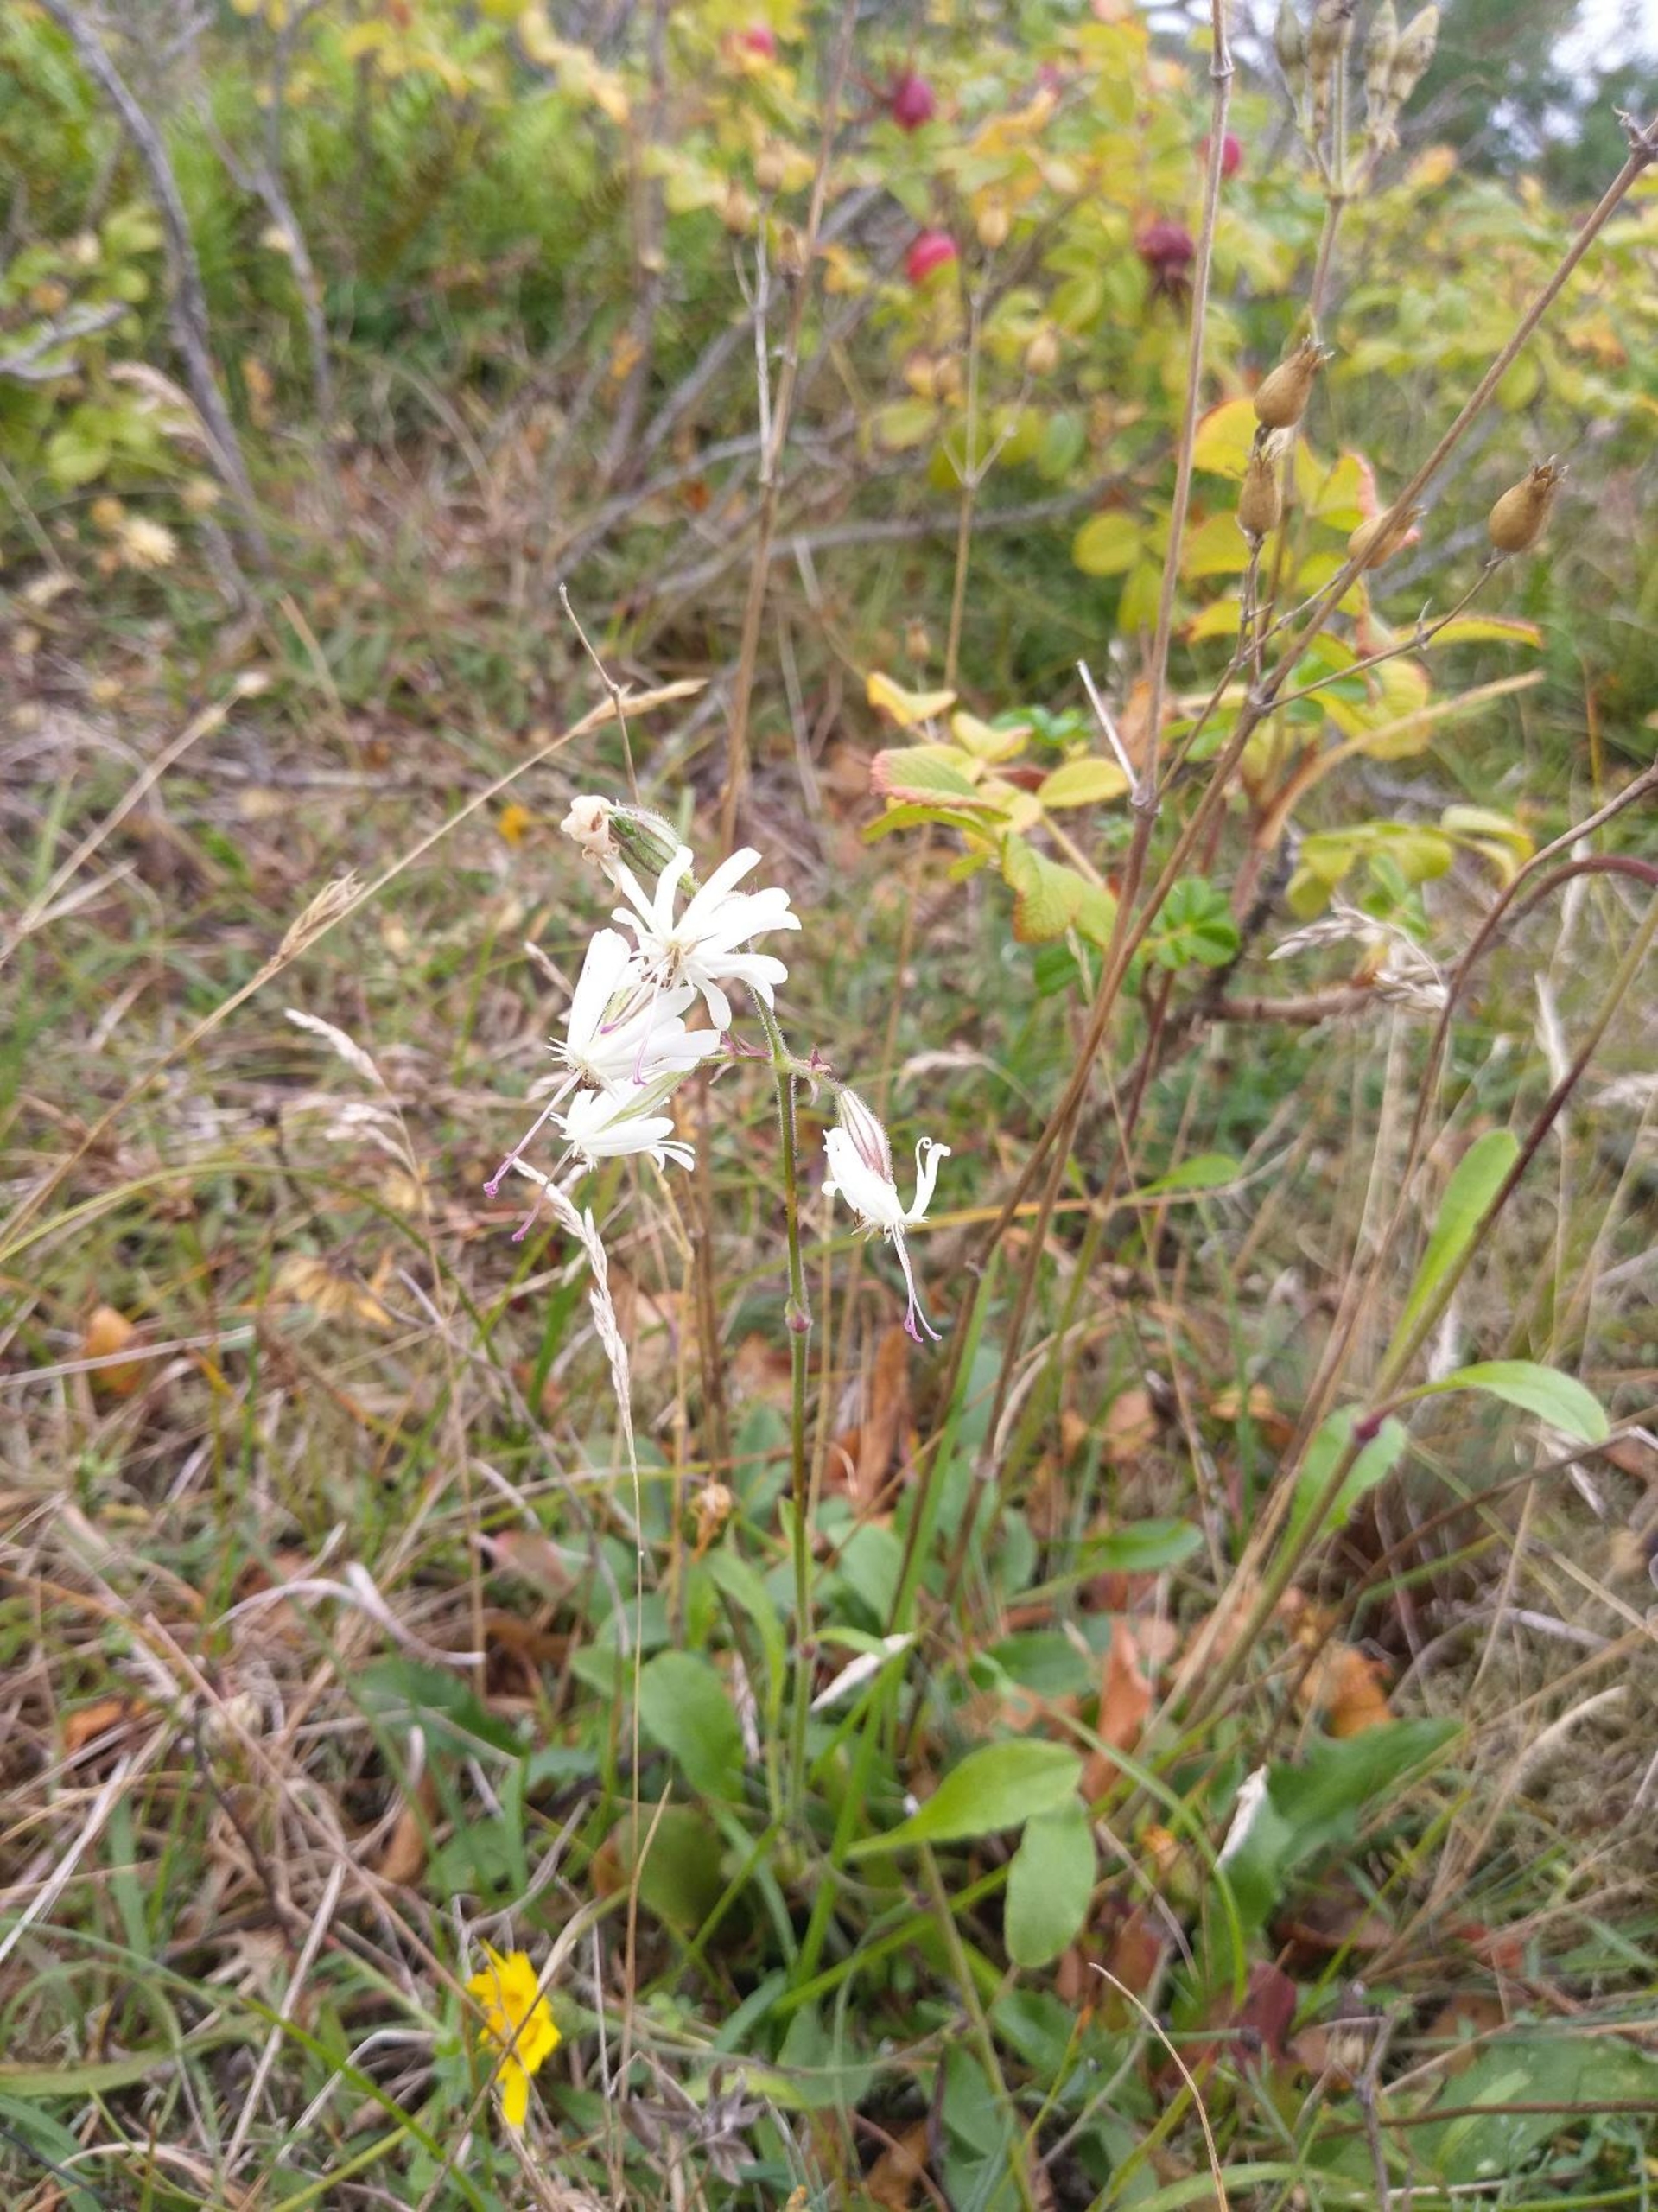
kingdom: Plantae
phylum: Tracheophyta
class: Magnoliopsida
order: Caryophyllales
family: Caryophyllaceae
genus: Silene
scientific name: Silene nutans
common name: Nikkende limurt
